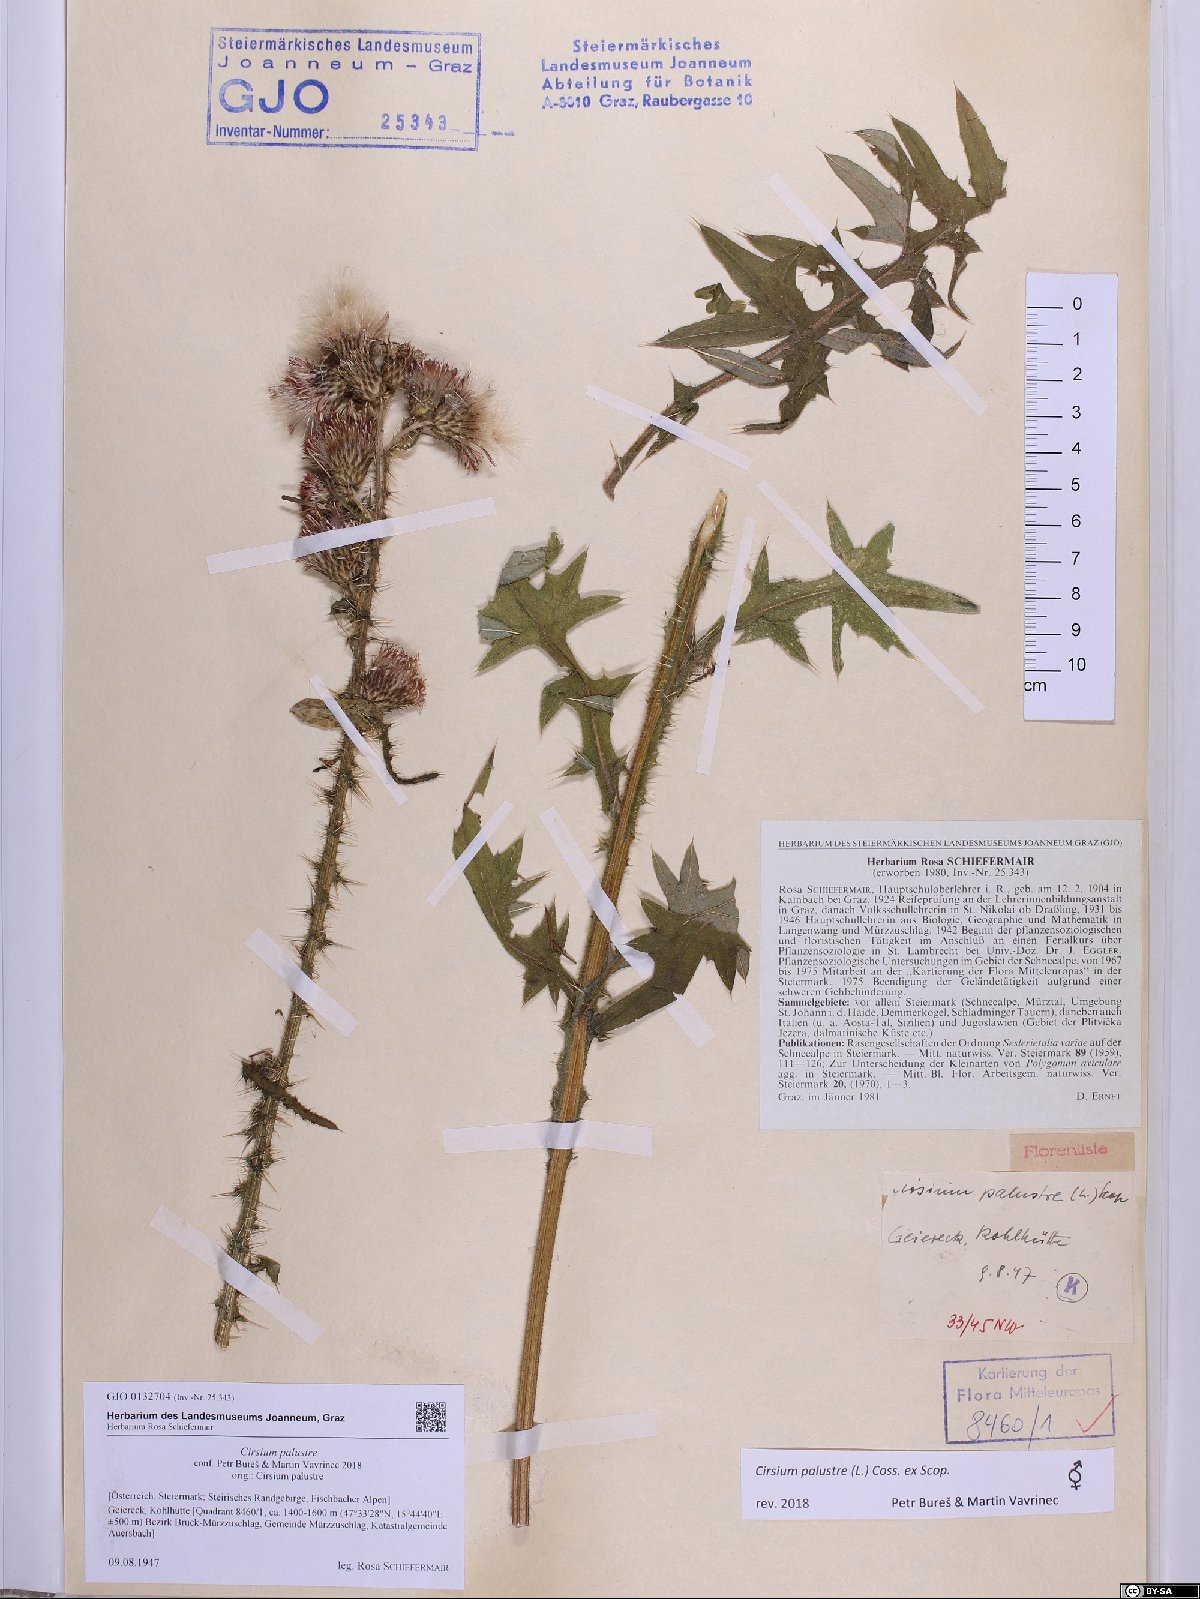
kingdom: Plantae
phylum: Tracheophyta
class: Magnoliopsida
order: Asterales
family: Asteraceae
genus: Cirsium
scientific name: Cirsium palustre
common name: Marsh thistle
